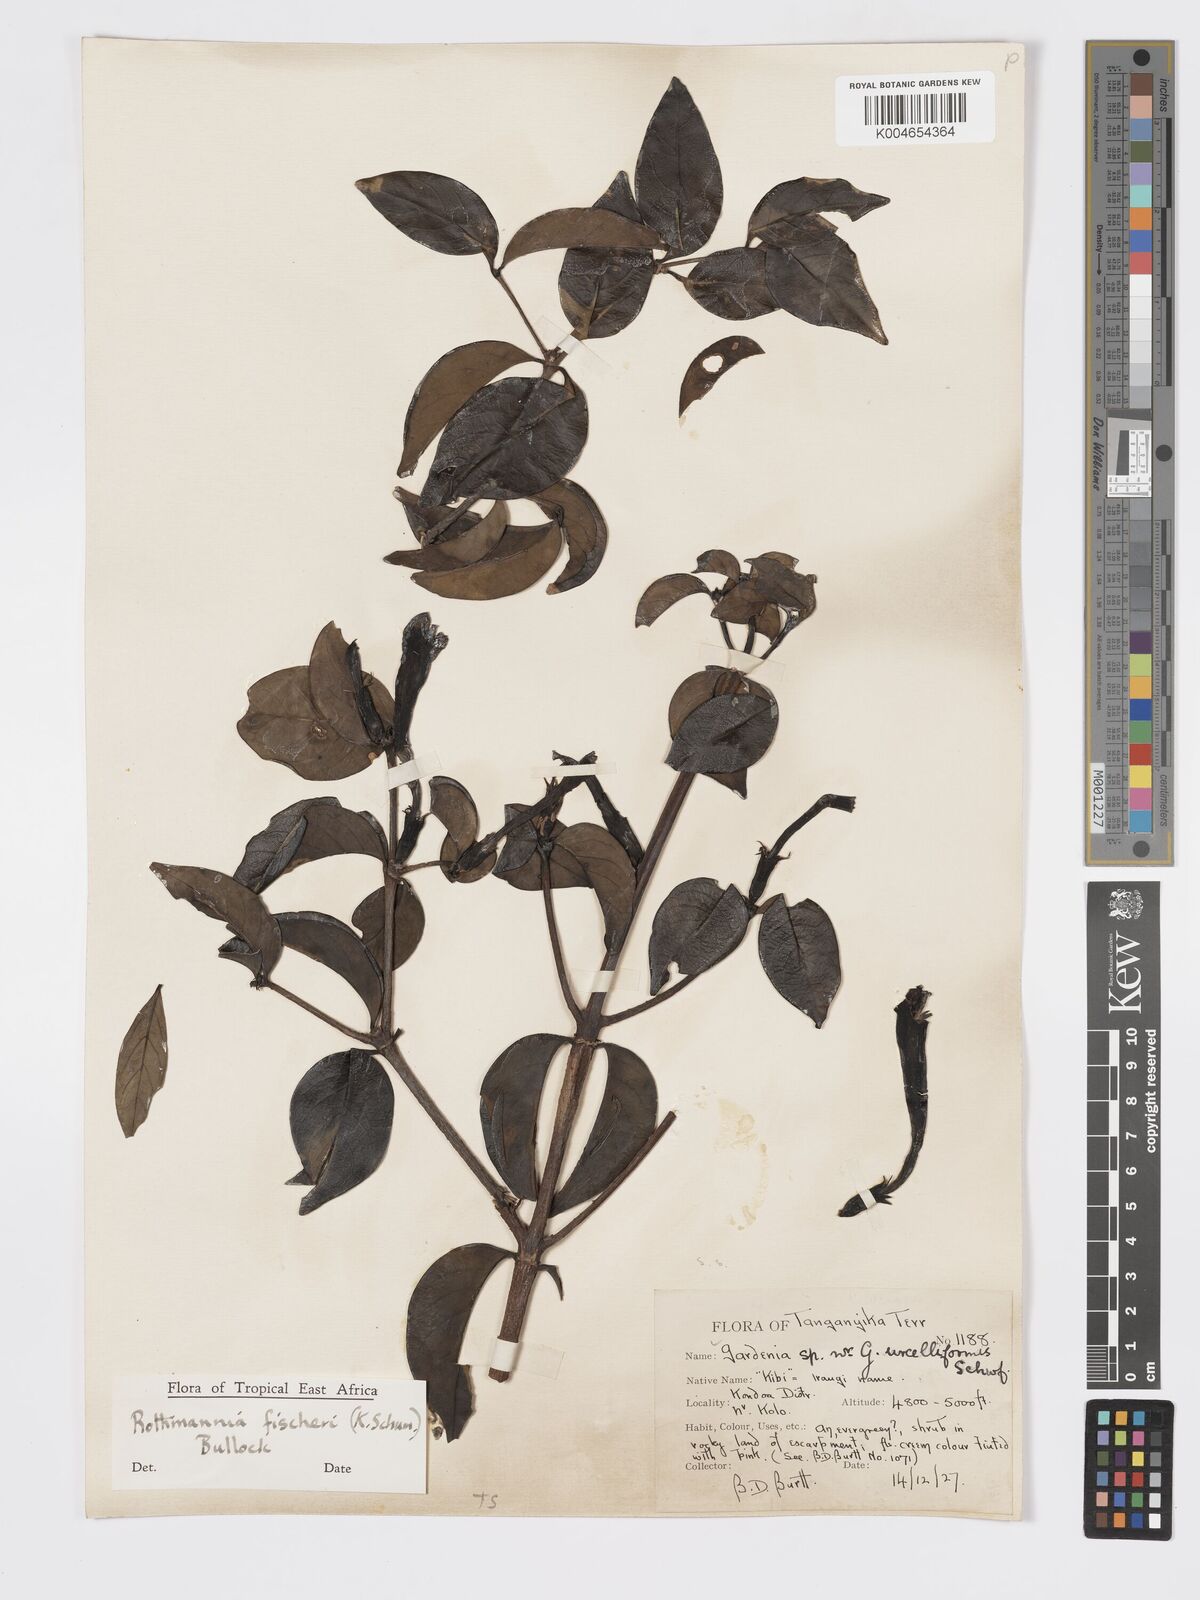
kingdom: Plantae
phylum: Tracheophyta
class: Magnoliopsida
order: Gentianales
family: Rubiaceae
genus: Rothmannia
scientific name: Rothmannia fischeri
